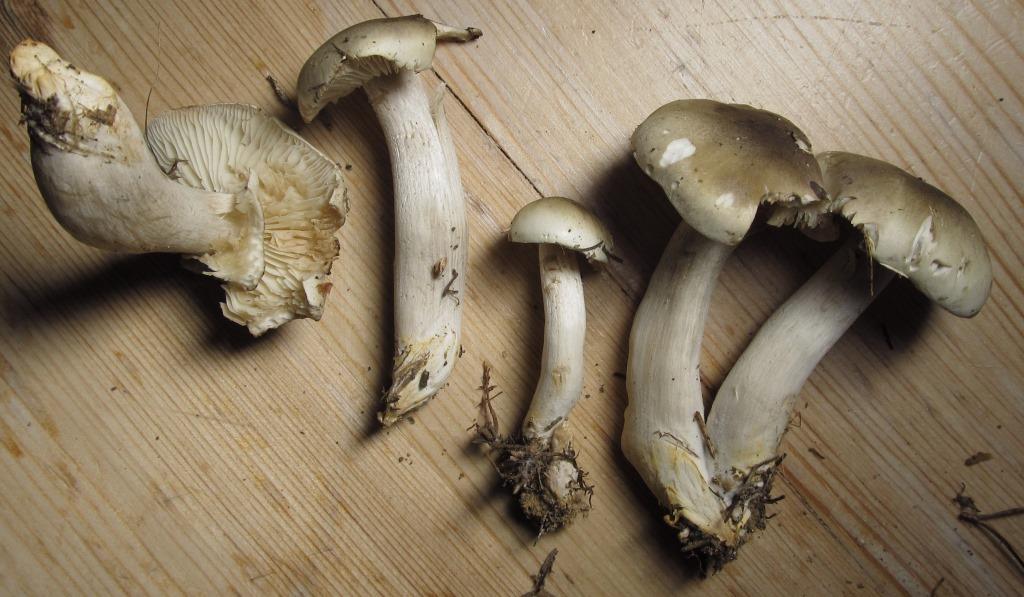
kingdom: Fungi
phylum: Basidiomycota
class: Agaricomycetes
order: Agaricales
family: Tricholomataceae
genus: Tricholoma
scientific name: Tricholoma saponaceum
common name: Soapy trich
